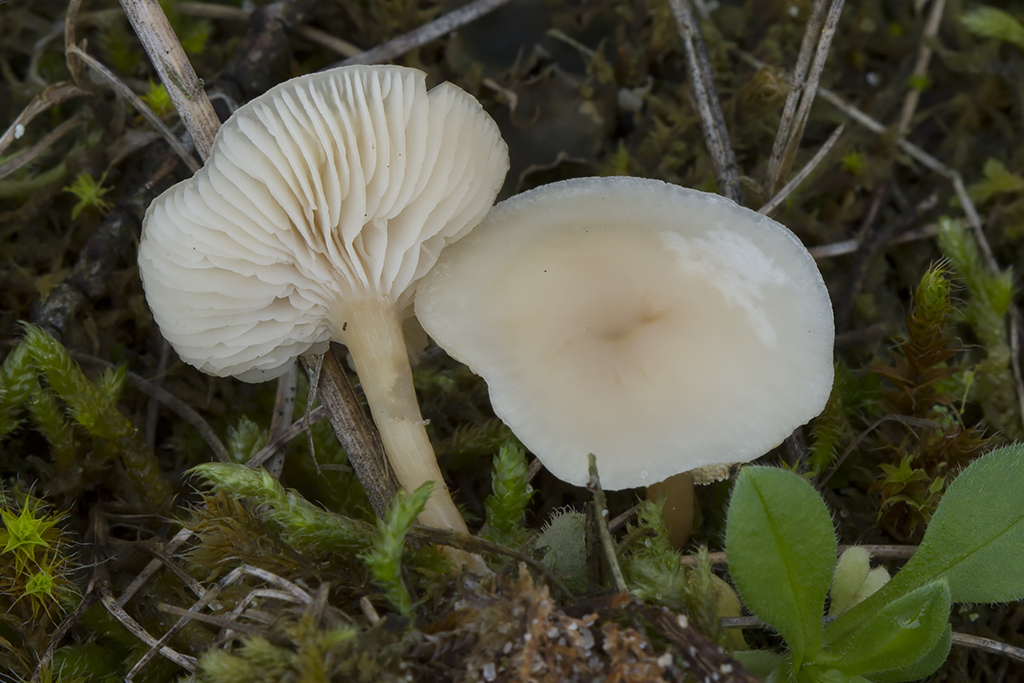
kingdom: Fungi
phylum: Basidiomycota
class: Agaricomycetes
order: Agaricales
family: Tricholomataceae
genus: Clitocybe
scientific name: Clitocybe agrestis
